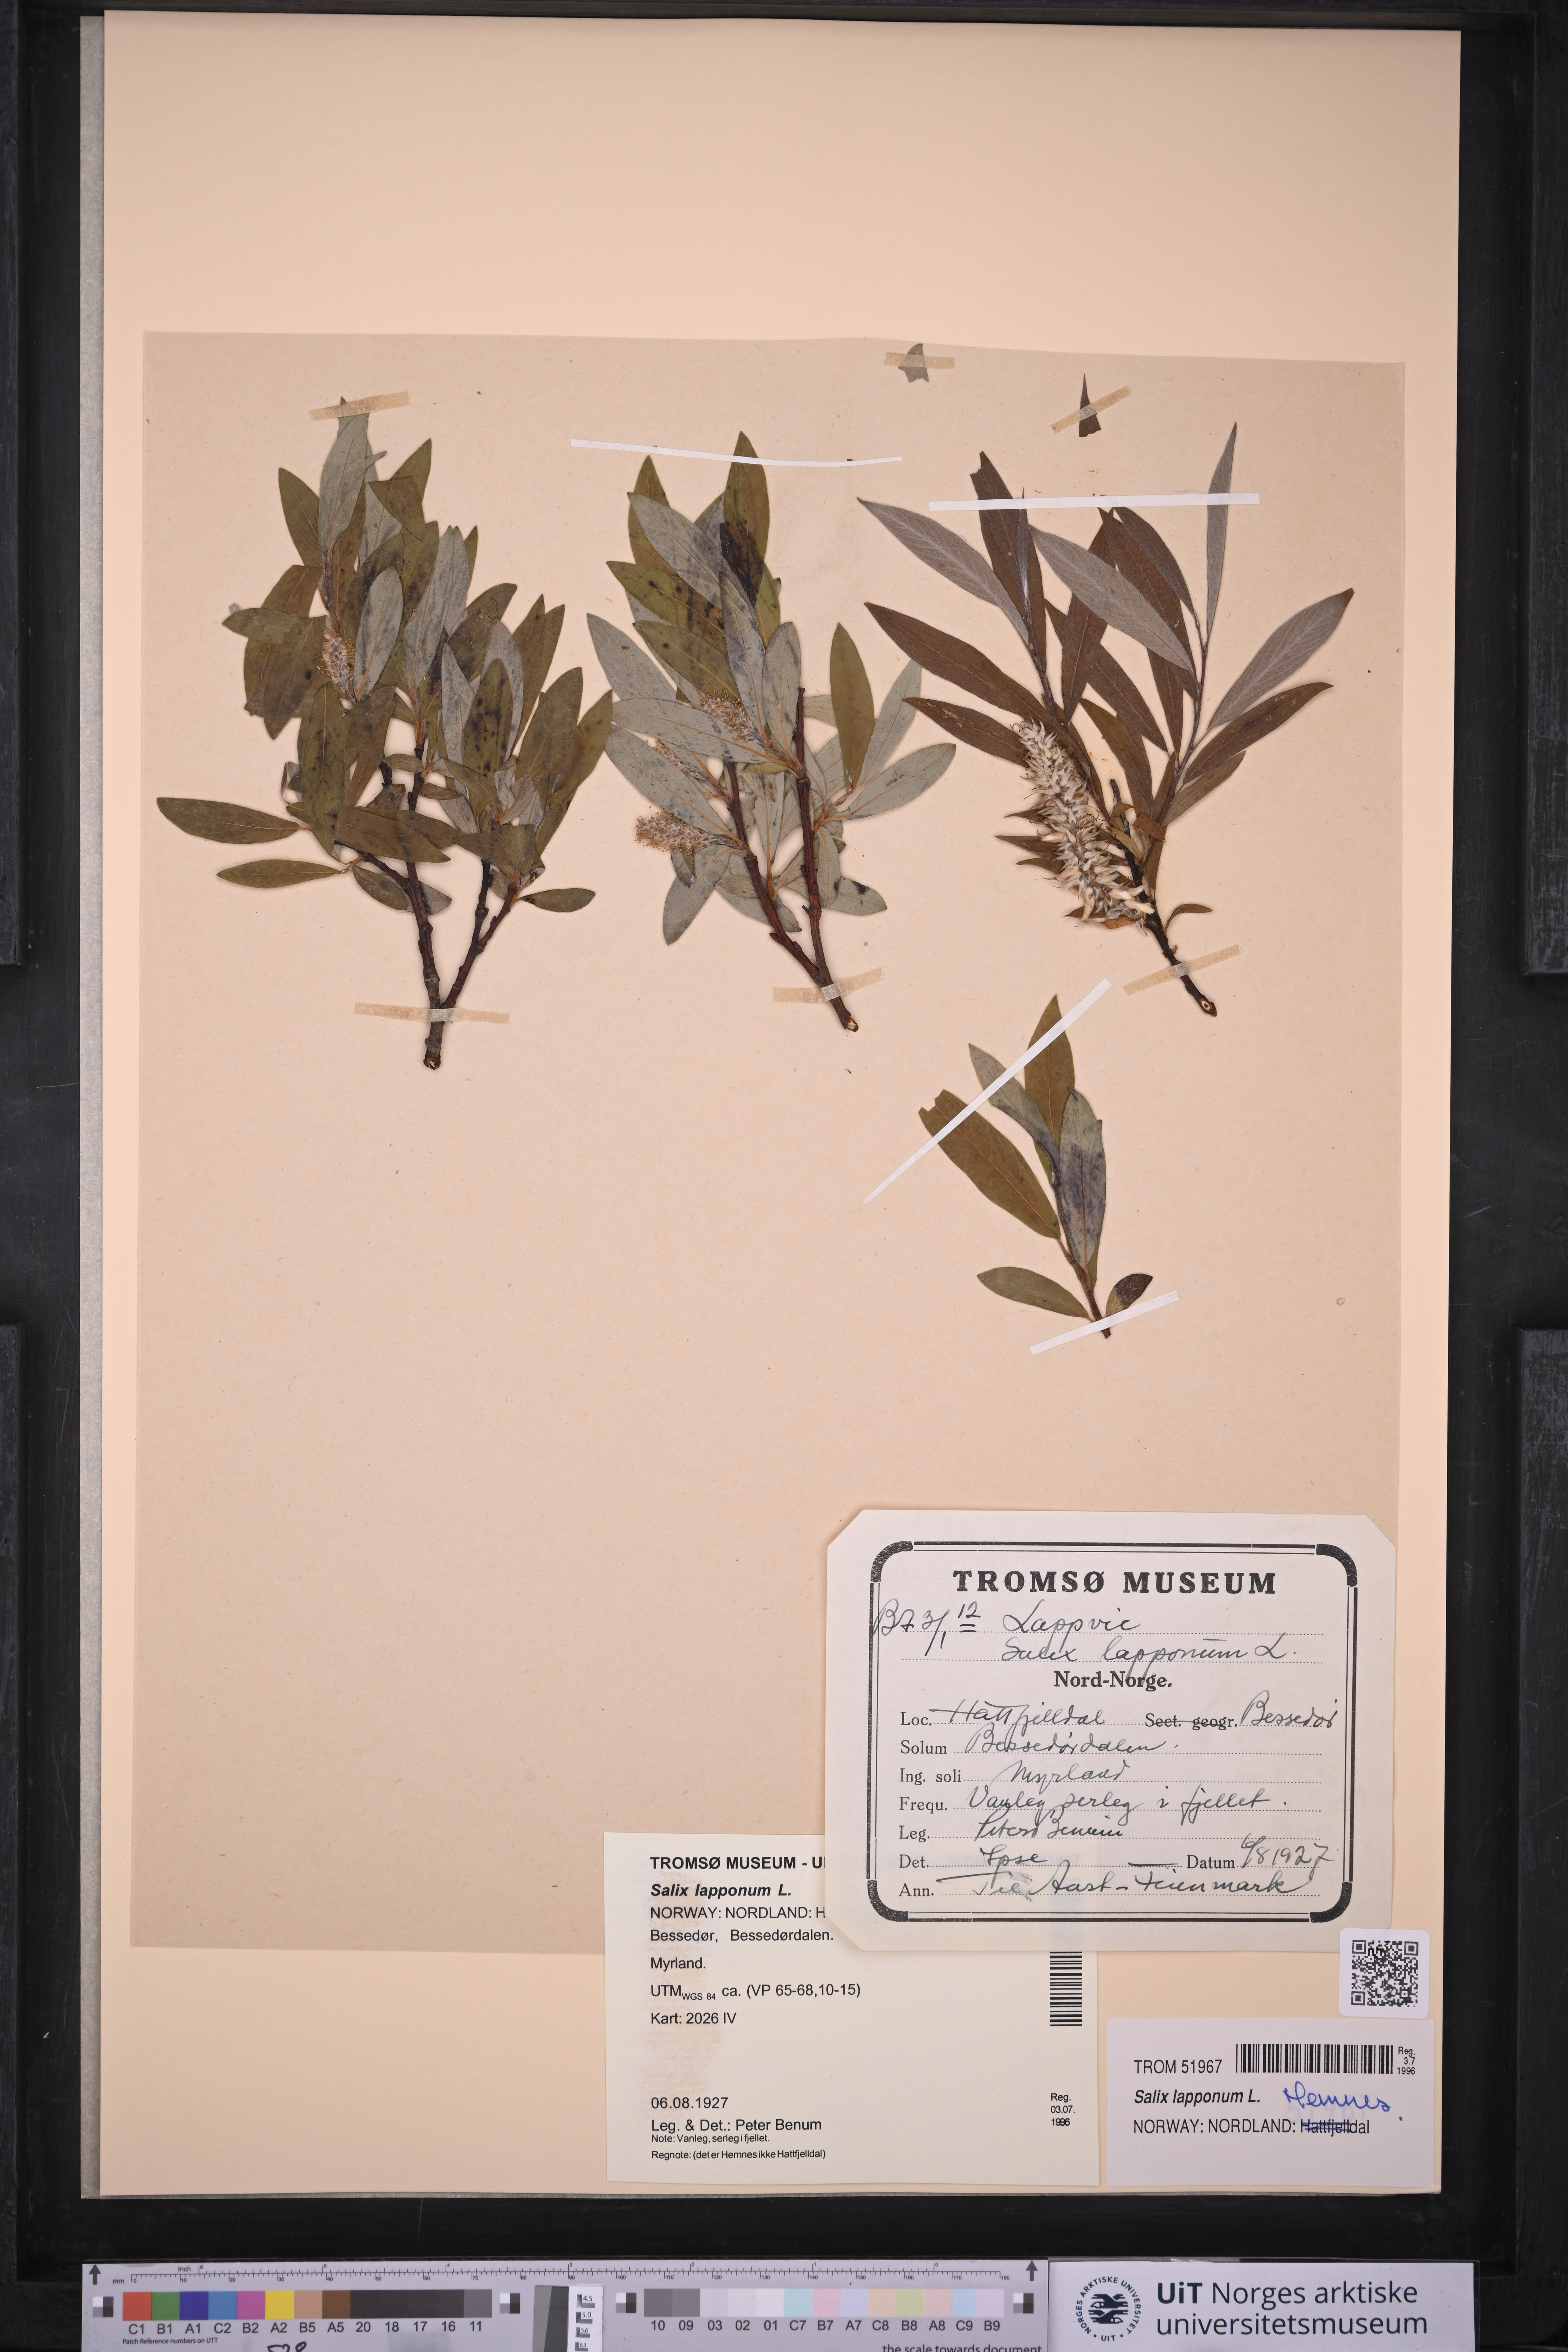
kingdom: Plantae
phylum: Tracheophyta
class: Magnoliopsida
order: Malpighiales
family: Salicaceae
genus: Salix
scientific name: Salix lapponum
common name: Downy willow
